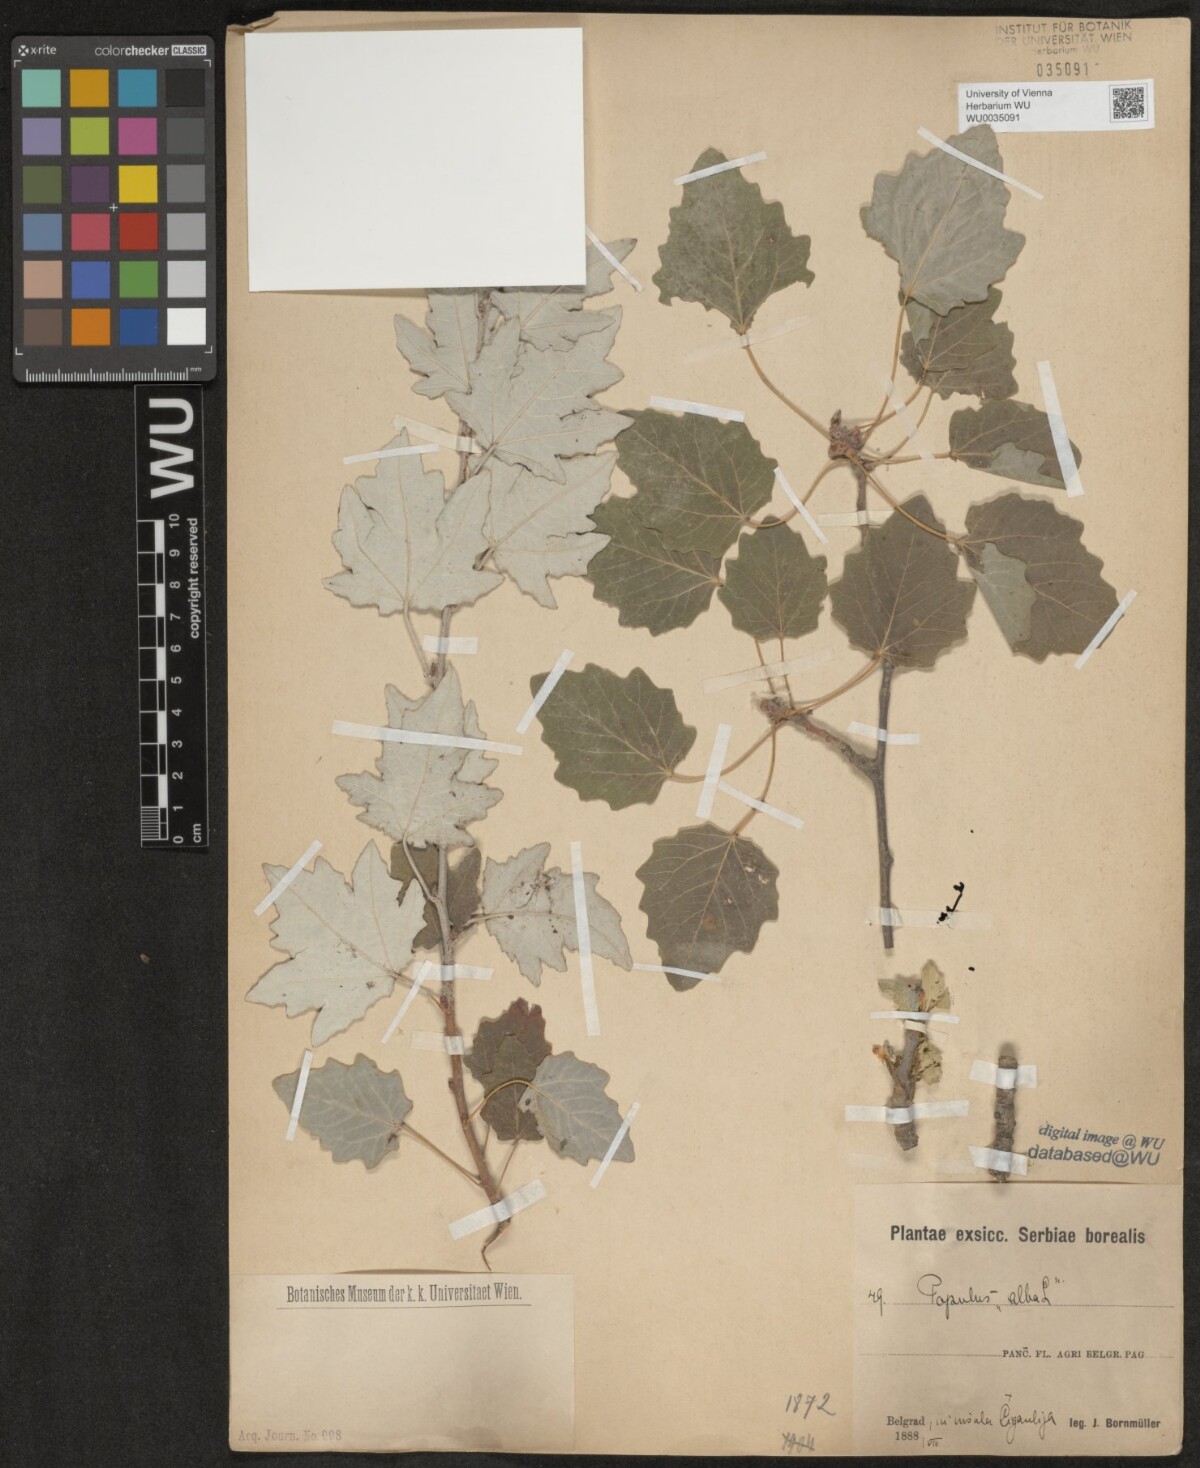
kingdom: Plantae
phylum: Tracheophyta
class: Magnoliopsida
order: Malpighiales
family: Salicaceae
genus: Populus
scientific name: Populus alba
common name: White poplar
